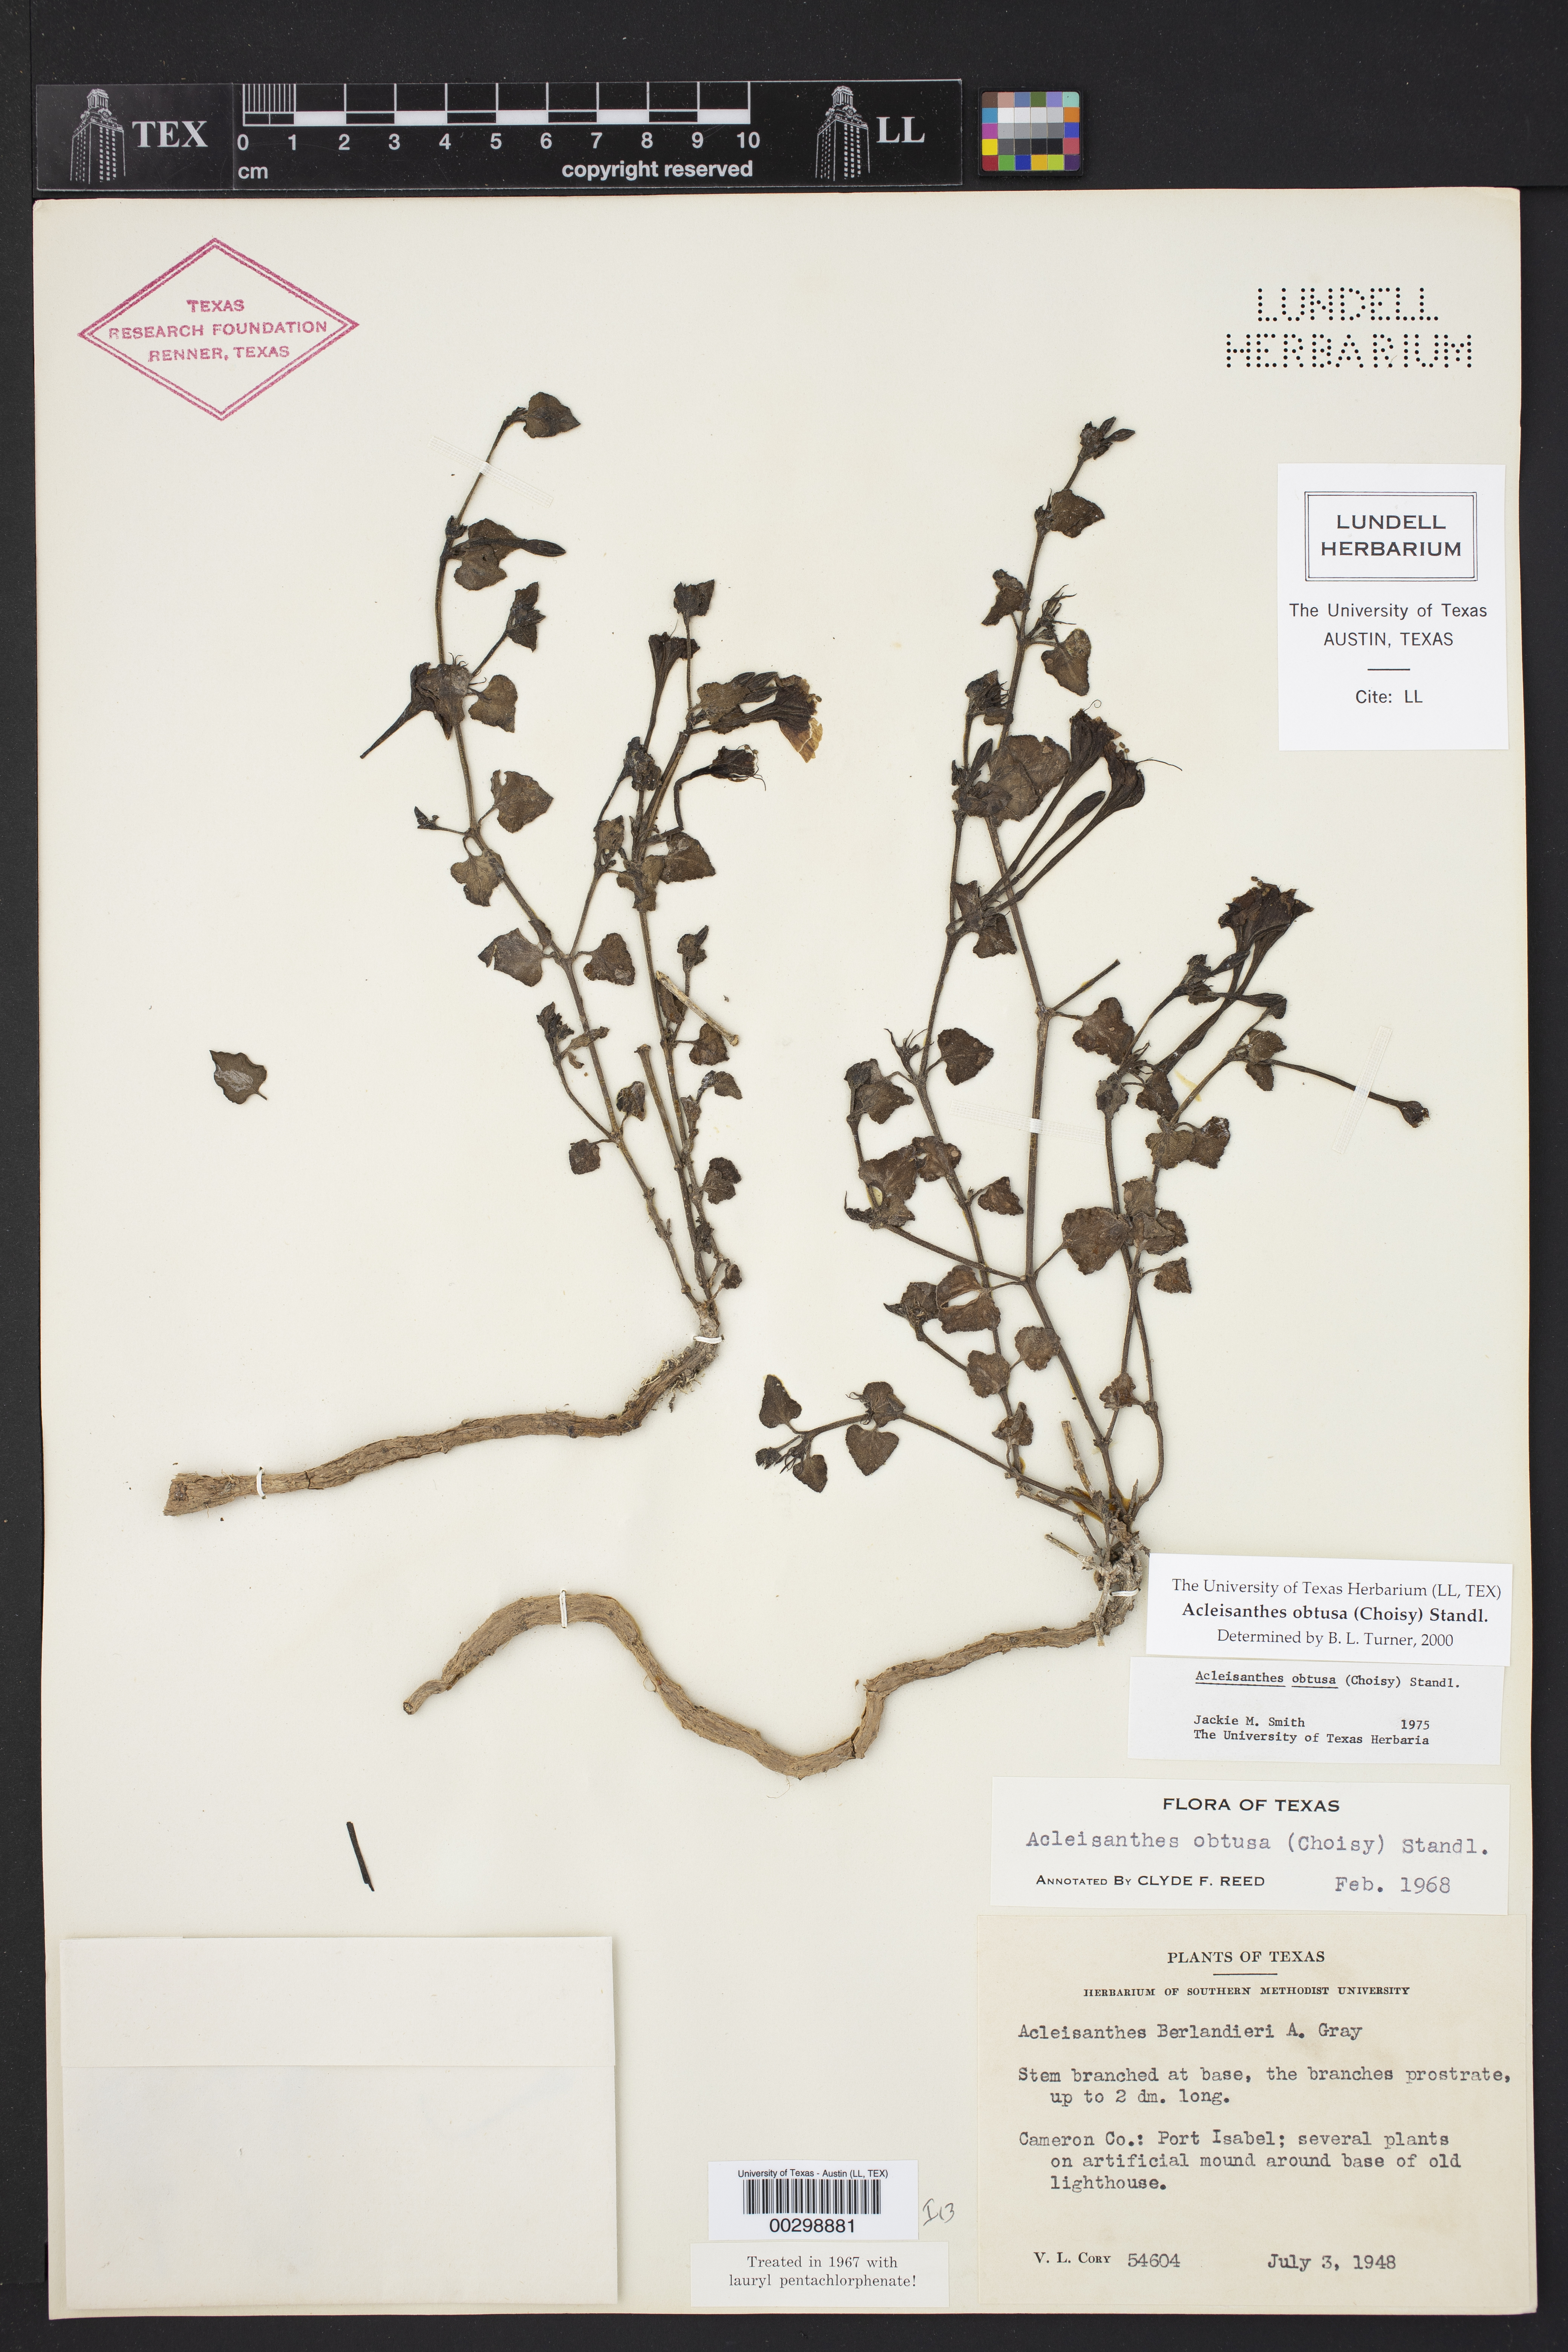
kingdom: Plantae
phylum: Tracheophyta
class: Magnoliopsida
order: Caryophyllales
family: Nyctaginaceae
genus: Acleisanthes
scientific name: Acleisanthes obtusa
